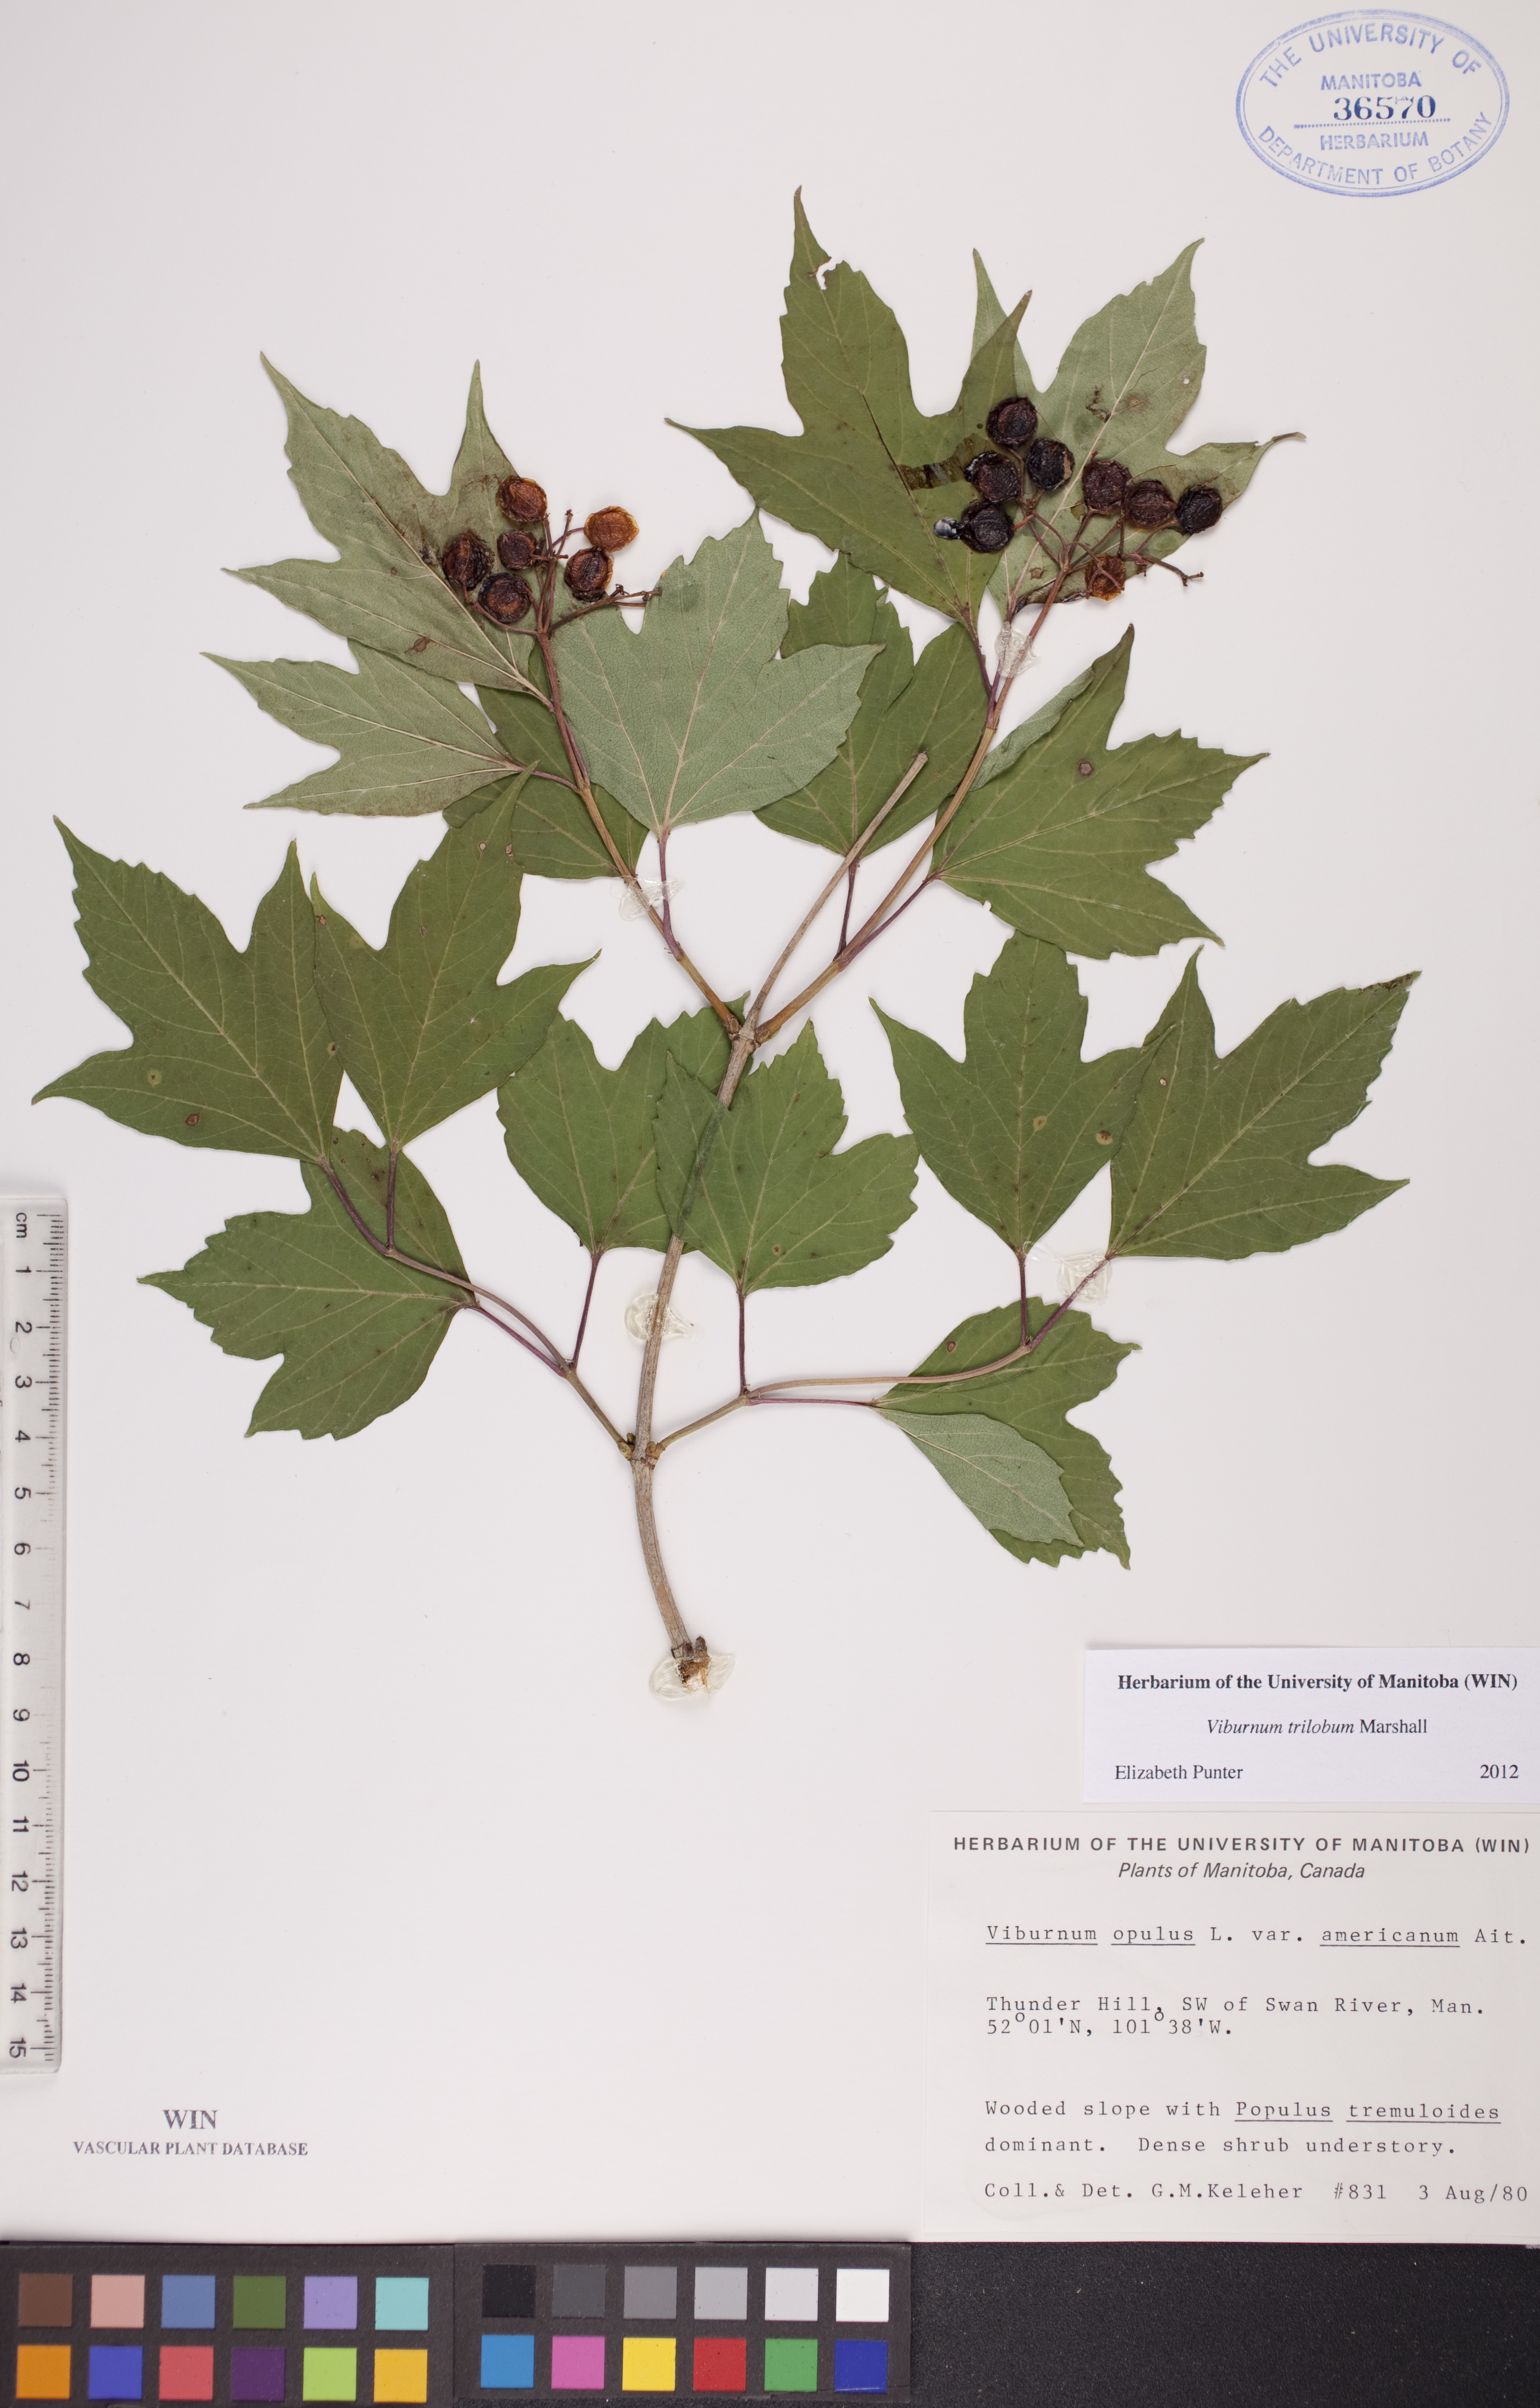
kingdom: Plantae
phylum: Tracheophyta
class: Magnoliopsida
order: Dipsacales
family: Viburnaceae
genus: Viburnum
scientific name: Viburnum trilobum
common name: American cranberrybush
